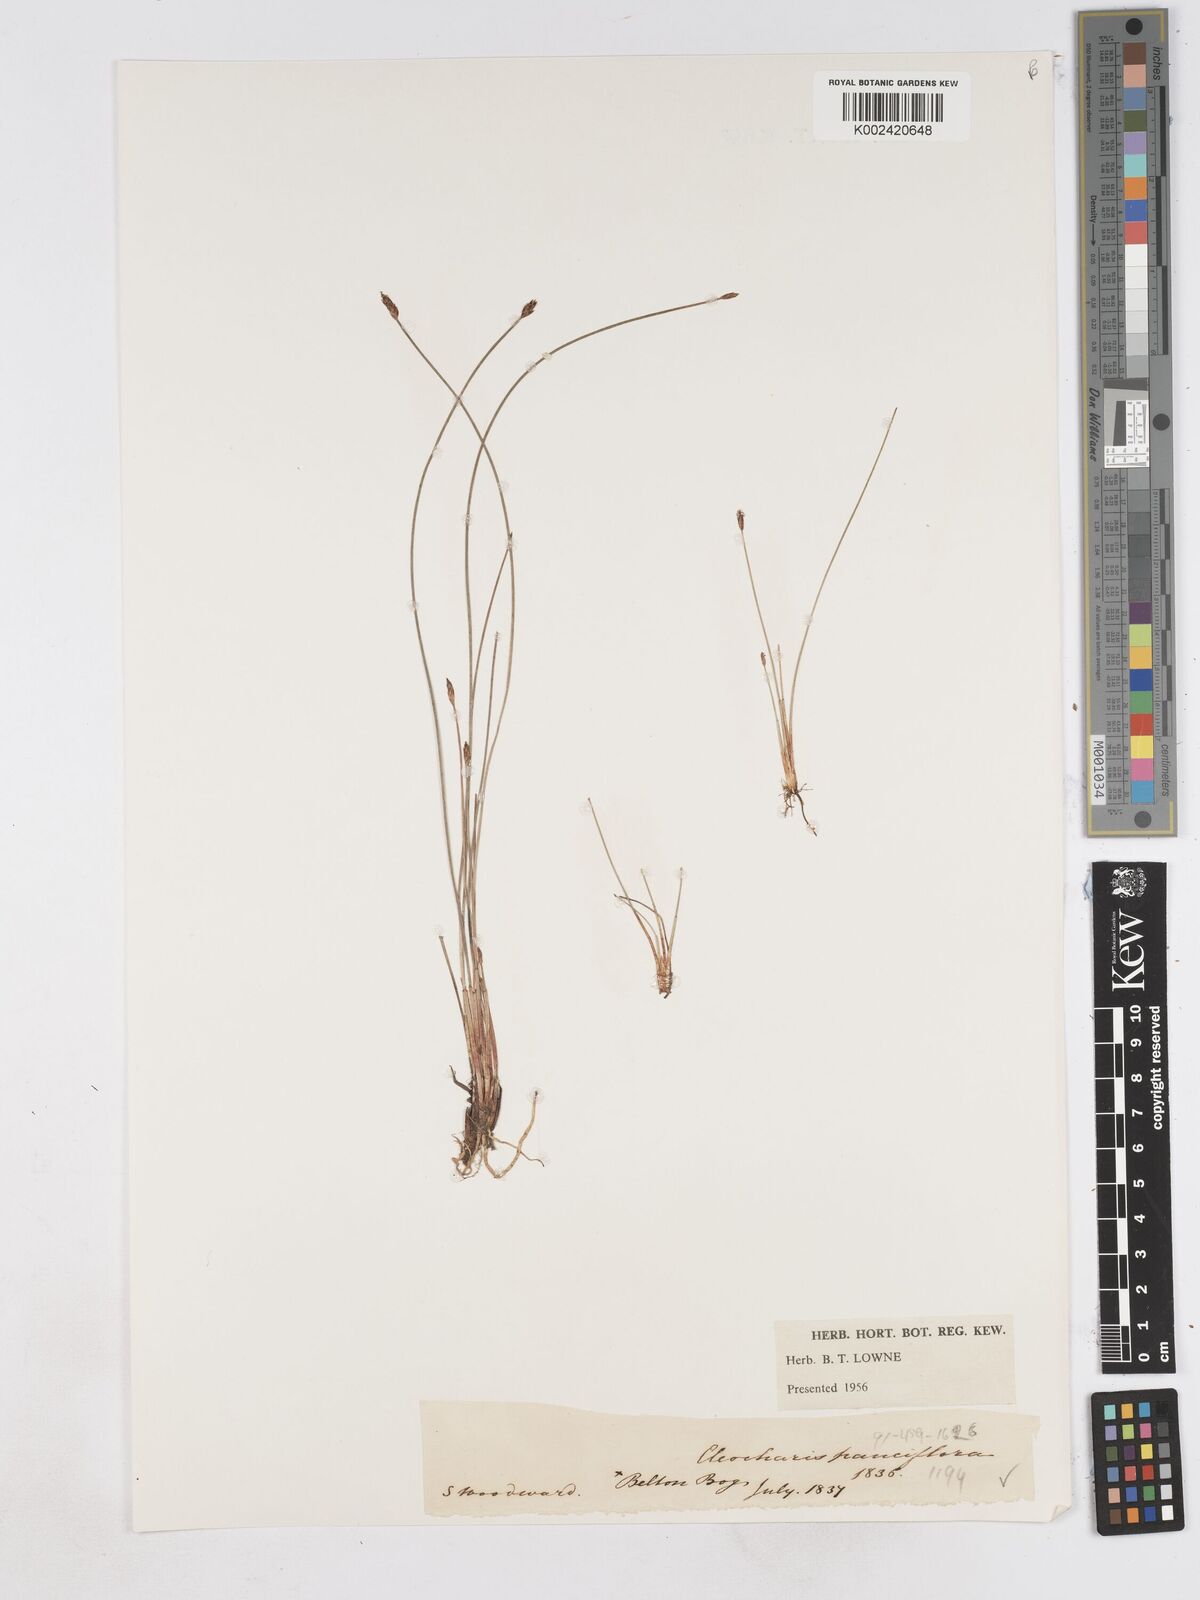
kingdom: Plantae
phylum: Tracheophyta
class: Liliopsida
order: Poales
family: Cyperaceae
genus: Eleocharis
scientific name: Eleocharis quinqueflora
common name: Few-flowered spike-rush
